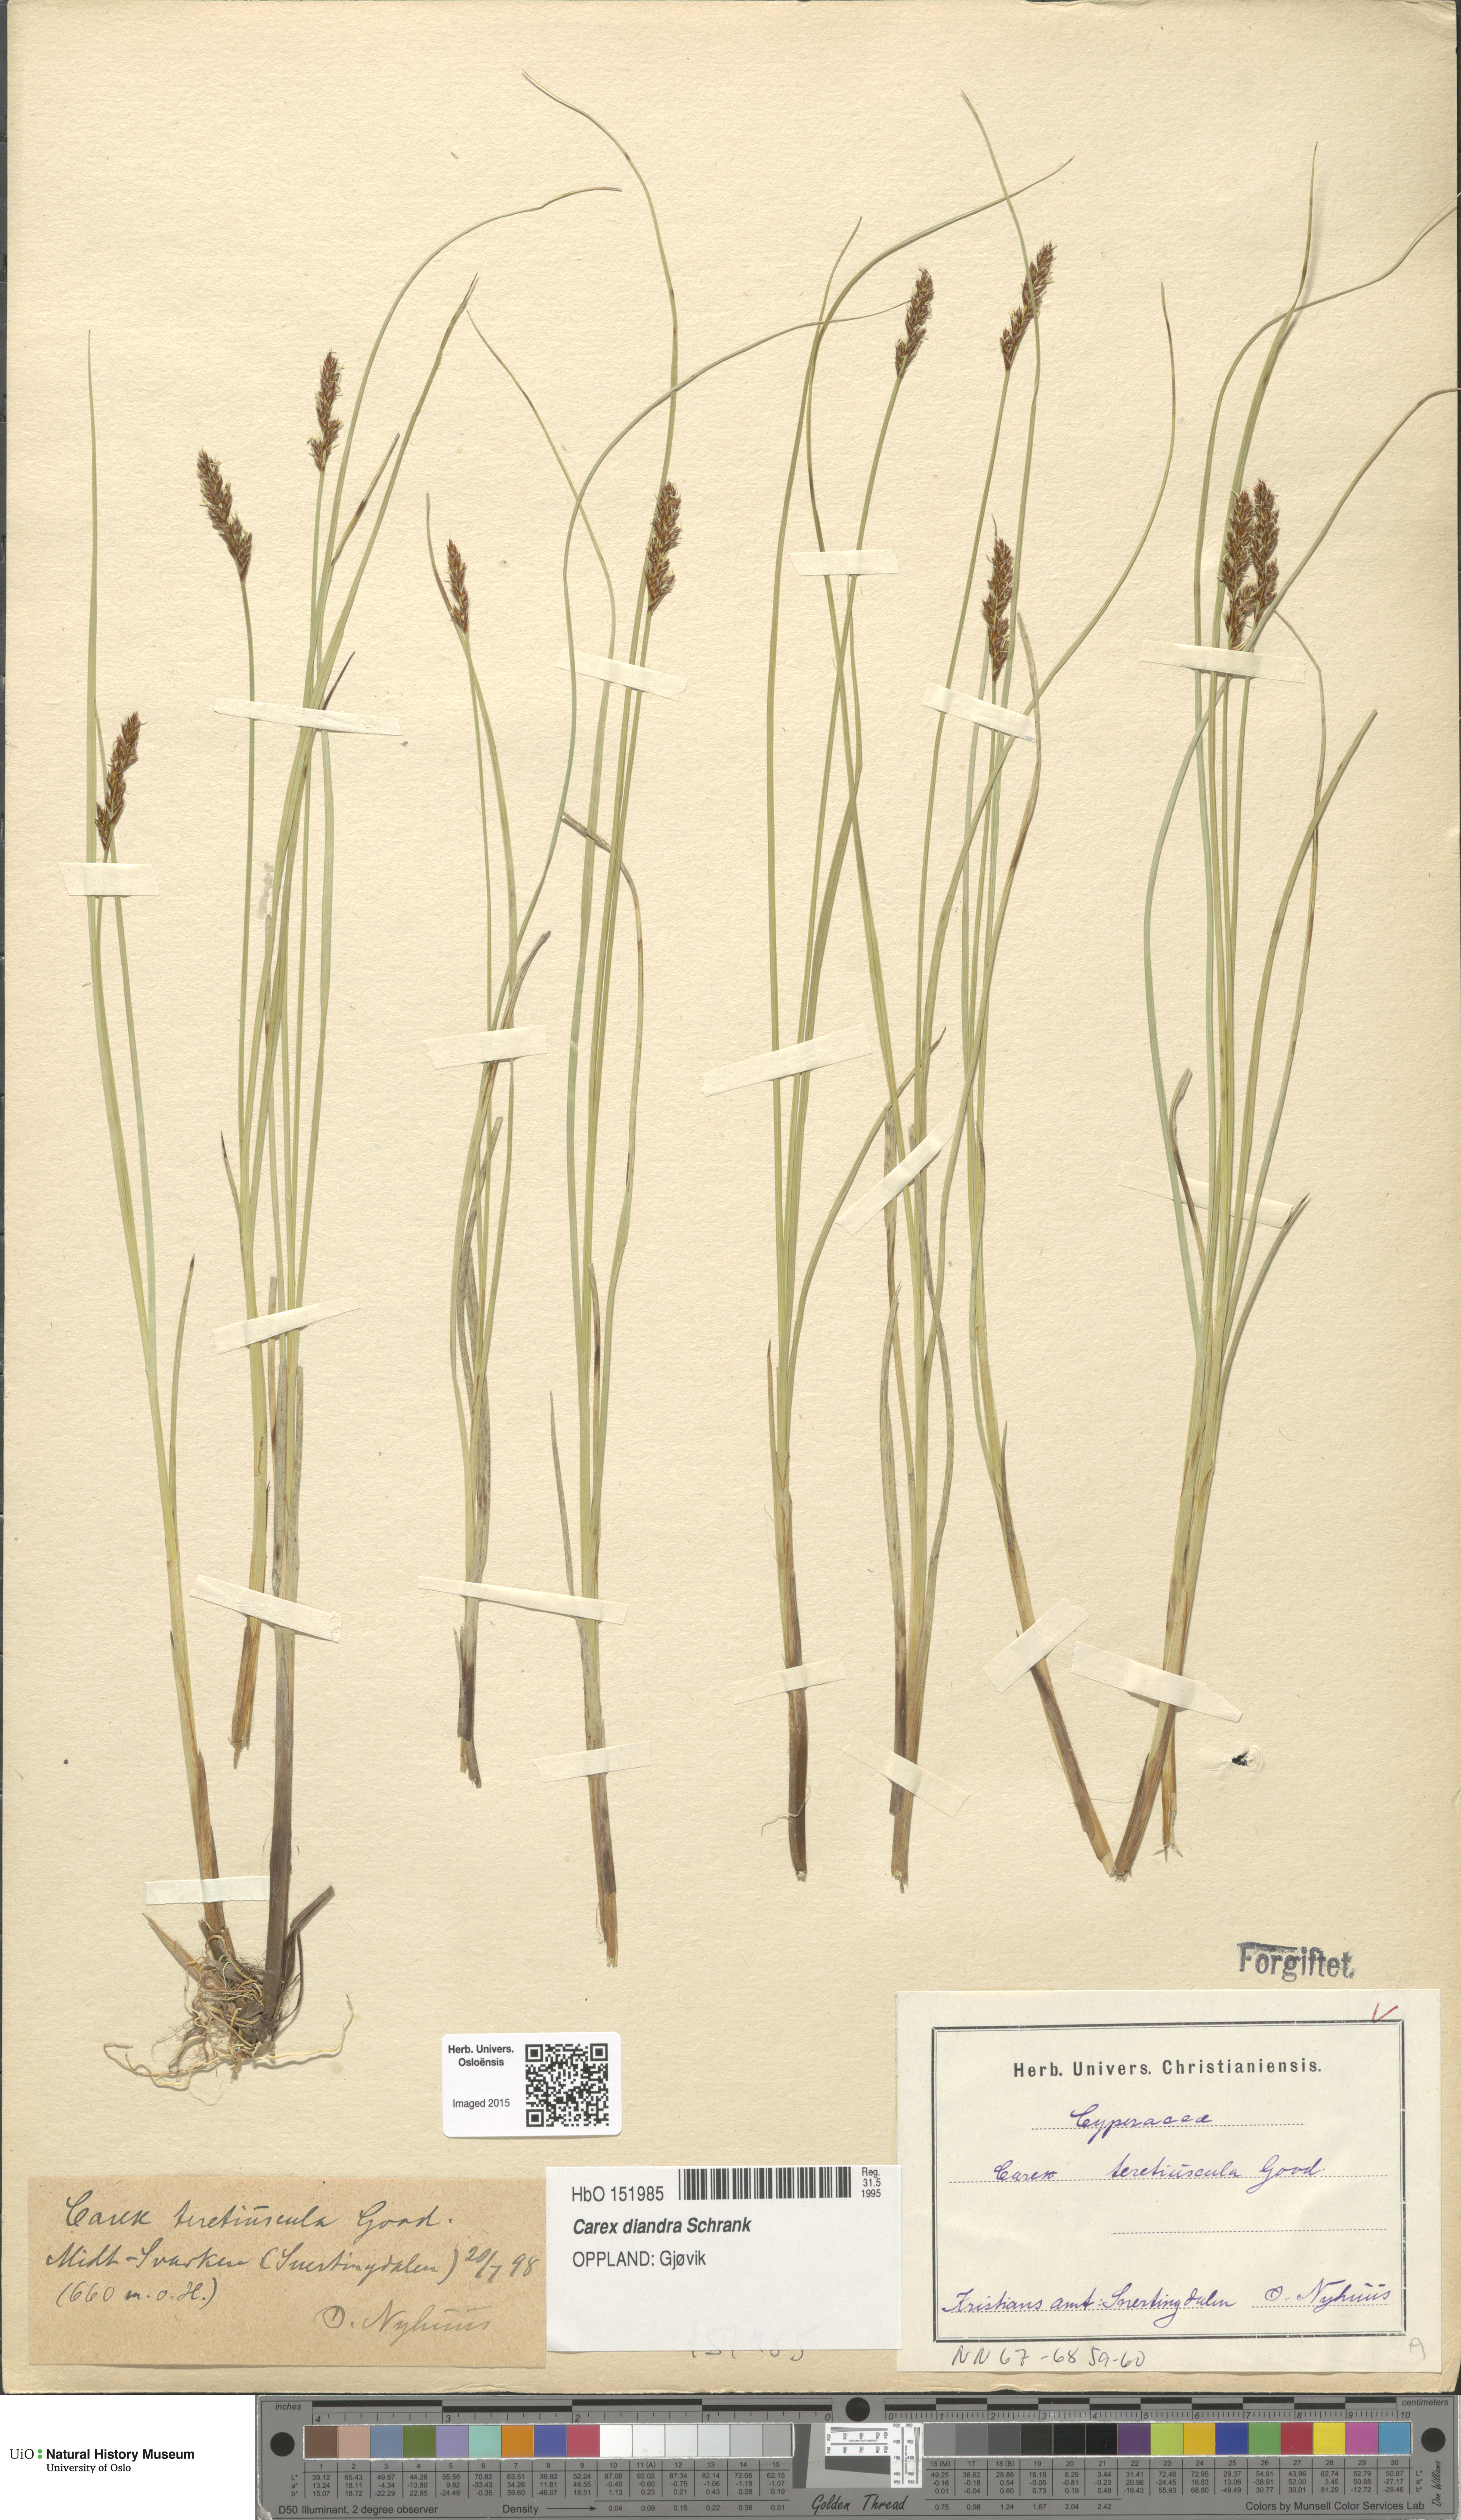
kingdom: Plantae
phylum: Tracheophyta
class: Liliopsida
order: Poales
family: Cyperaceae
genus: Carex
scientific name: Carex diandra
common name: Lesser tussock-sedge
